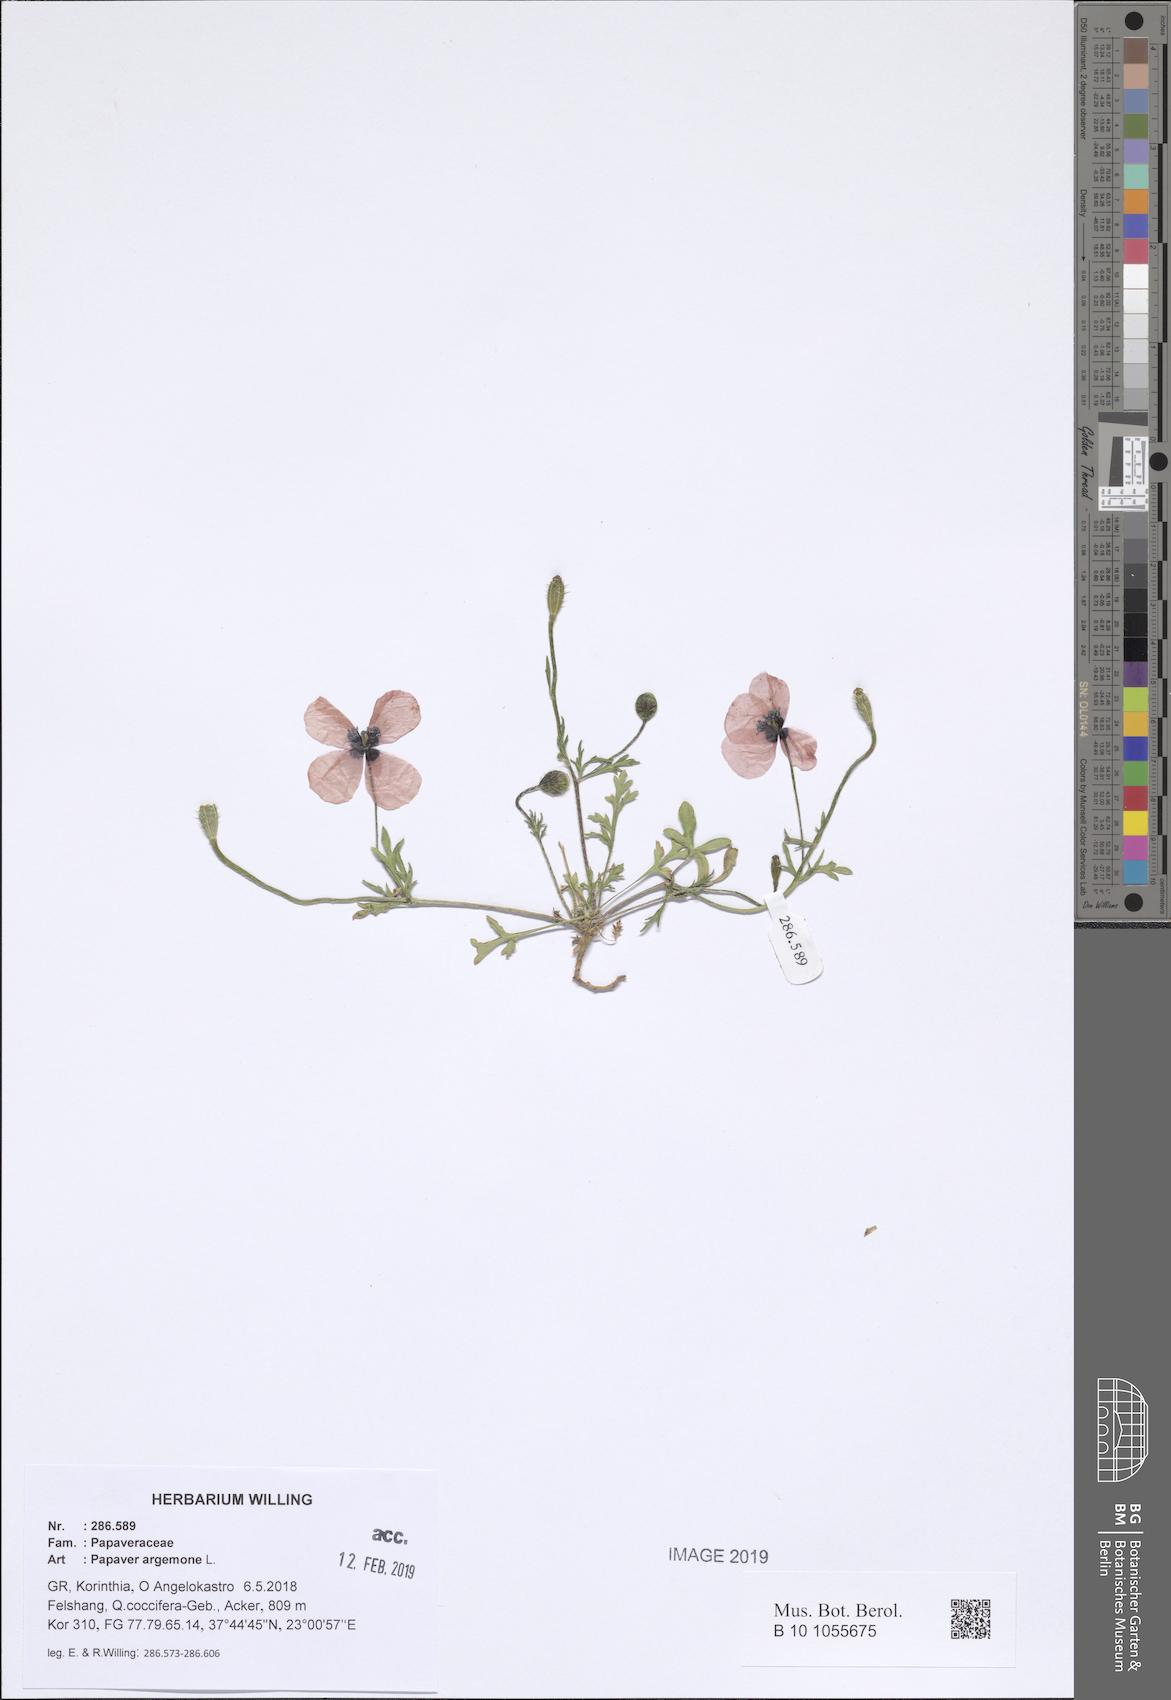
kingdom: Plantae
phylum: Tracheophyta
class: Magnoliopsida
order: Ranunculales
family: Papaveraceae
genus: Roemeria
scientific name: Roemeria argemone
